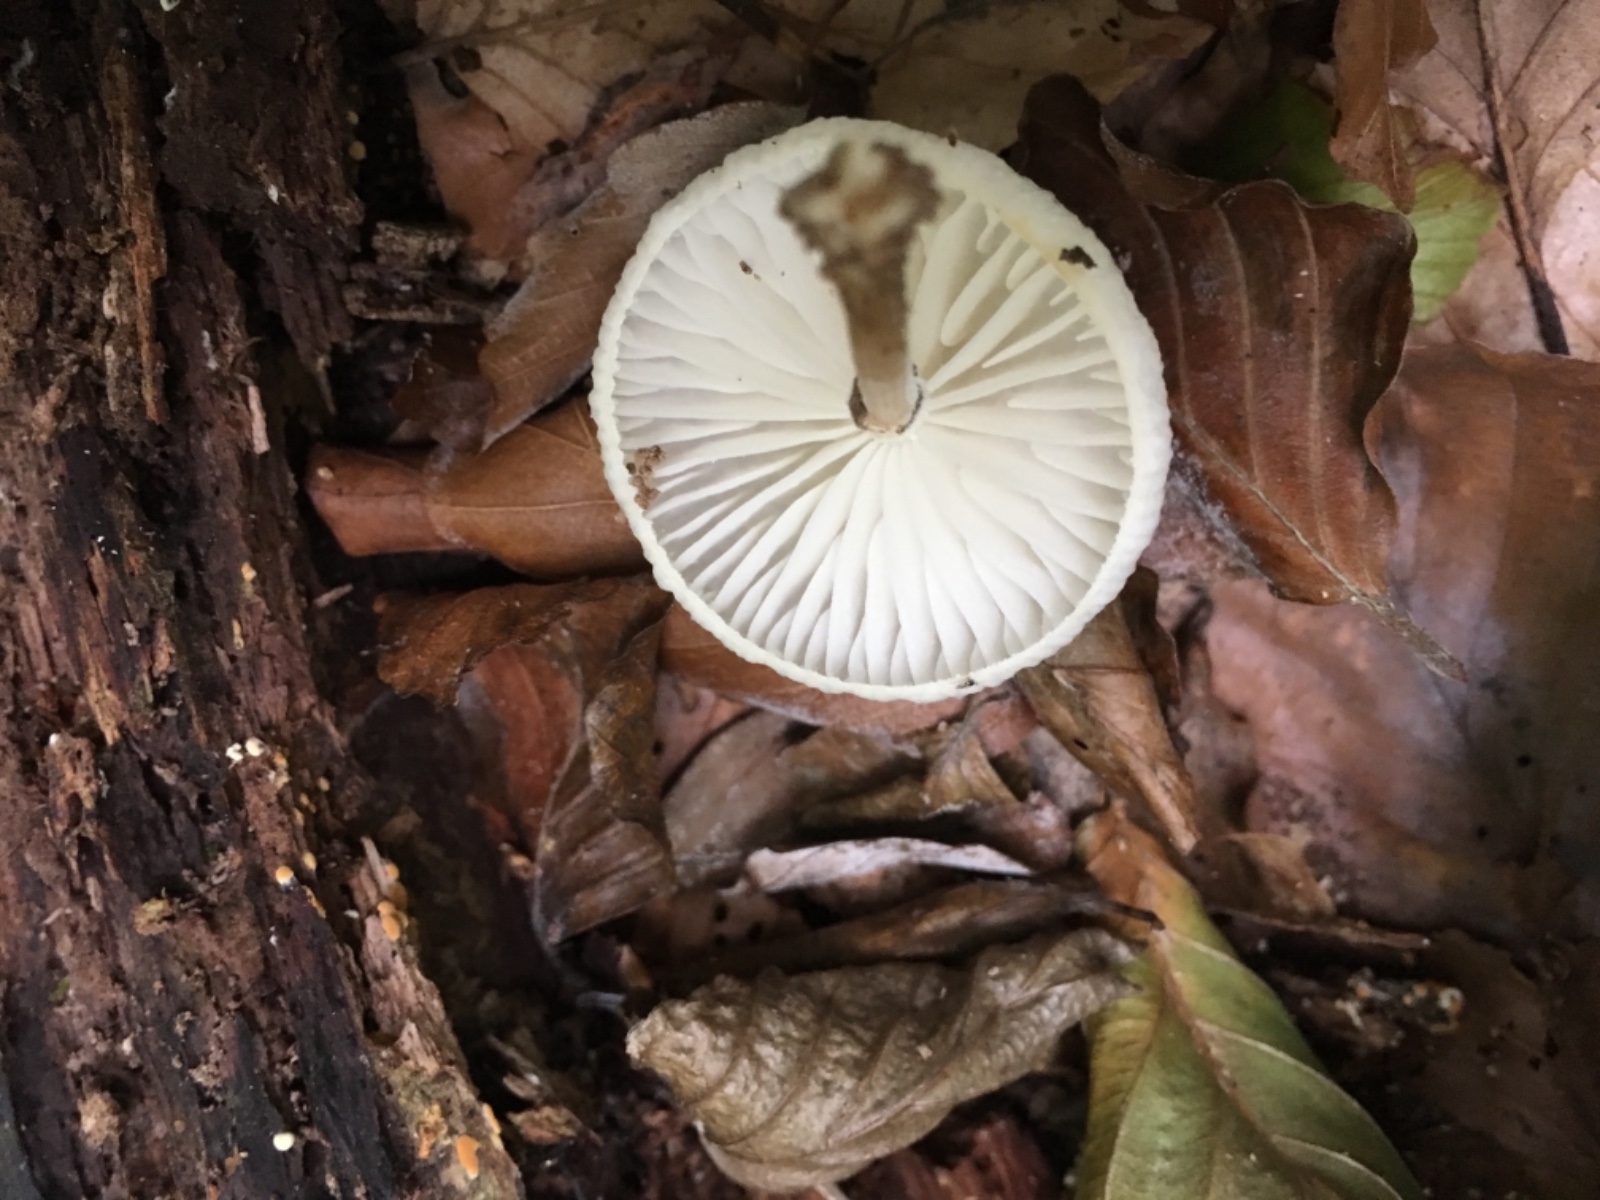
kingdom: Fungi
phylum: Basidiomycota
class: Agaricomycetes
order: Agaricales
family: Physalacriaceae
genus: Mucidula
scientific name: Mucidula mucida
